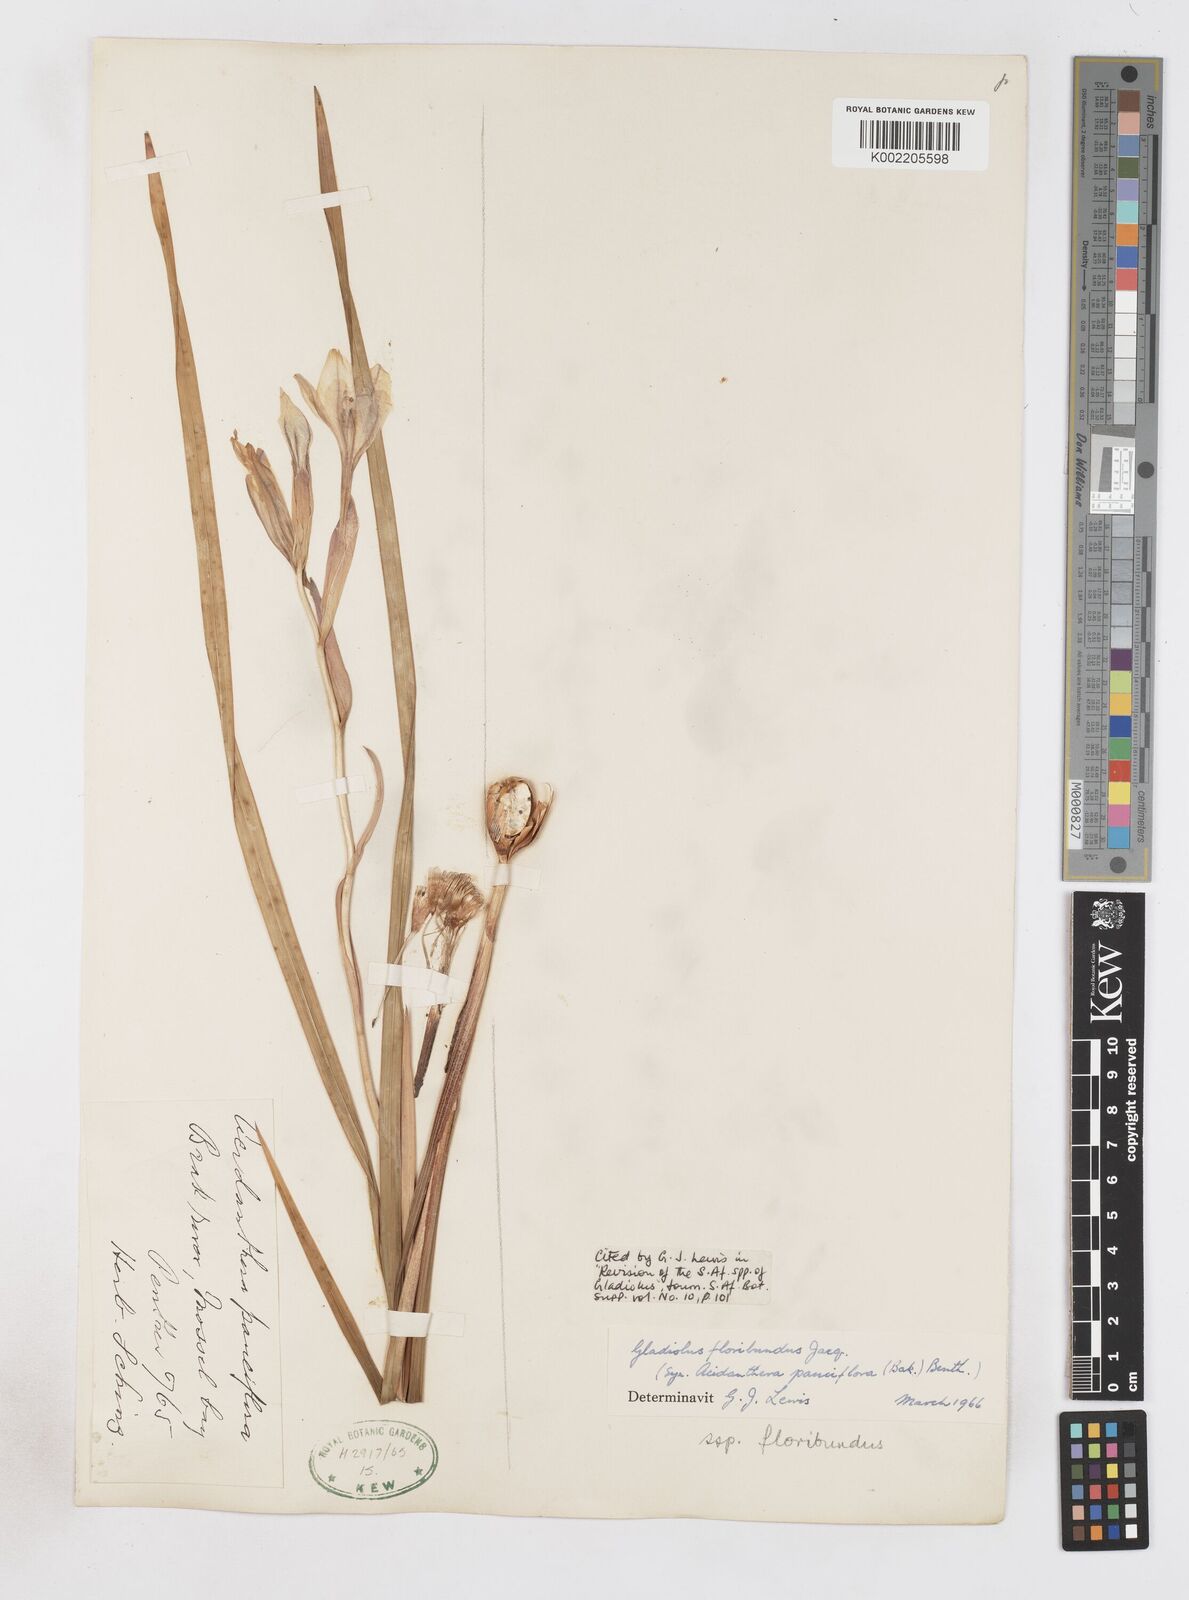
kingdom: Plantae
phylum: Tracheophyta
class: Liliopsida
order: Asparagales
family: Iridaceae
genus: Gladiolus
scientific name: Gladiolus floribundus
